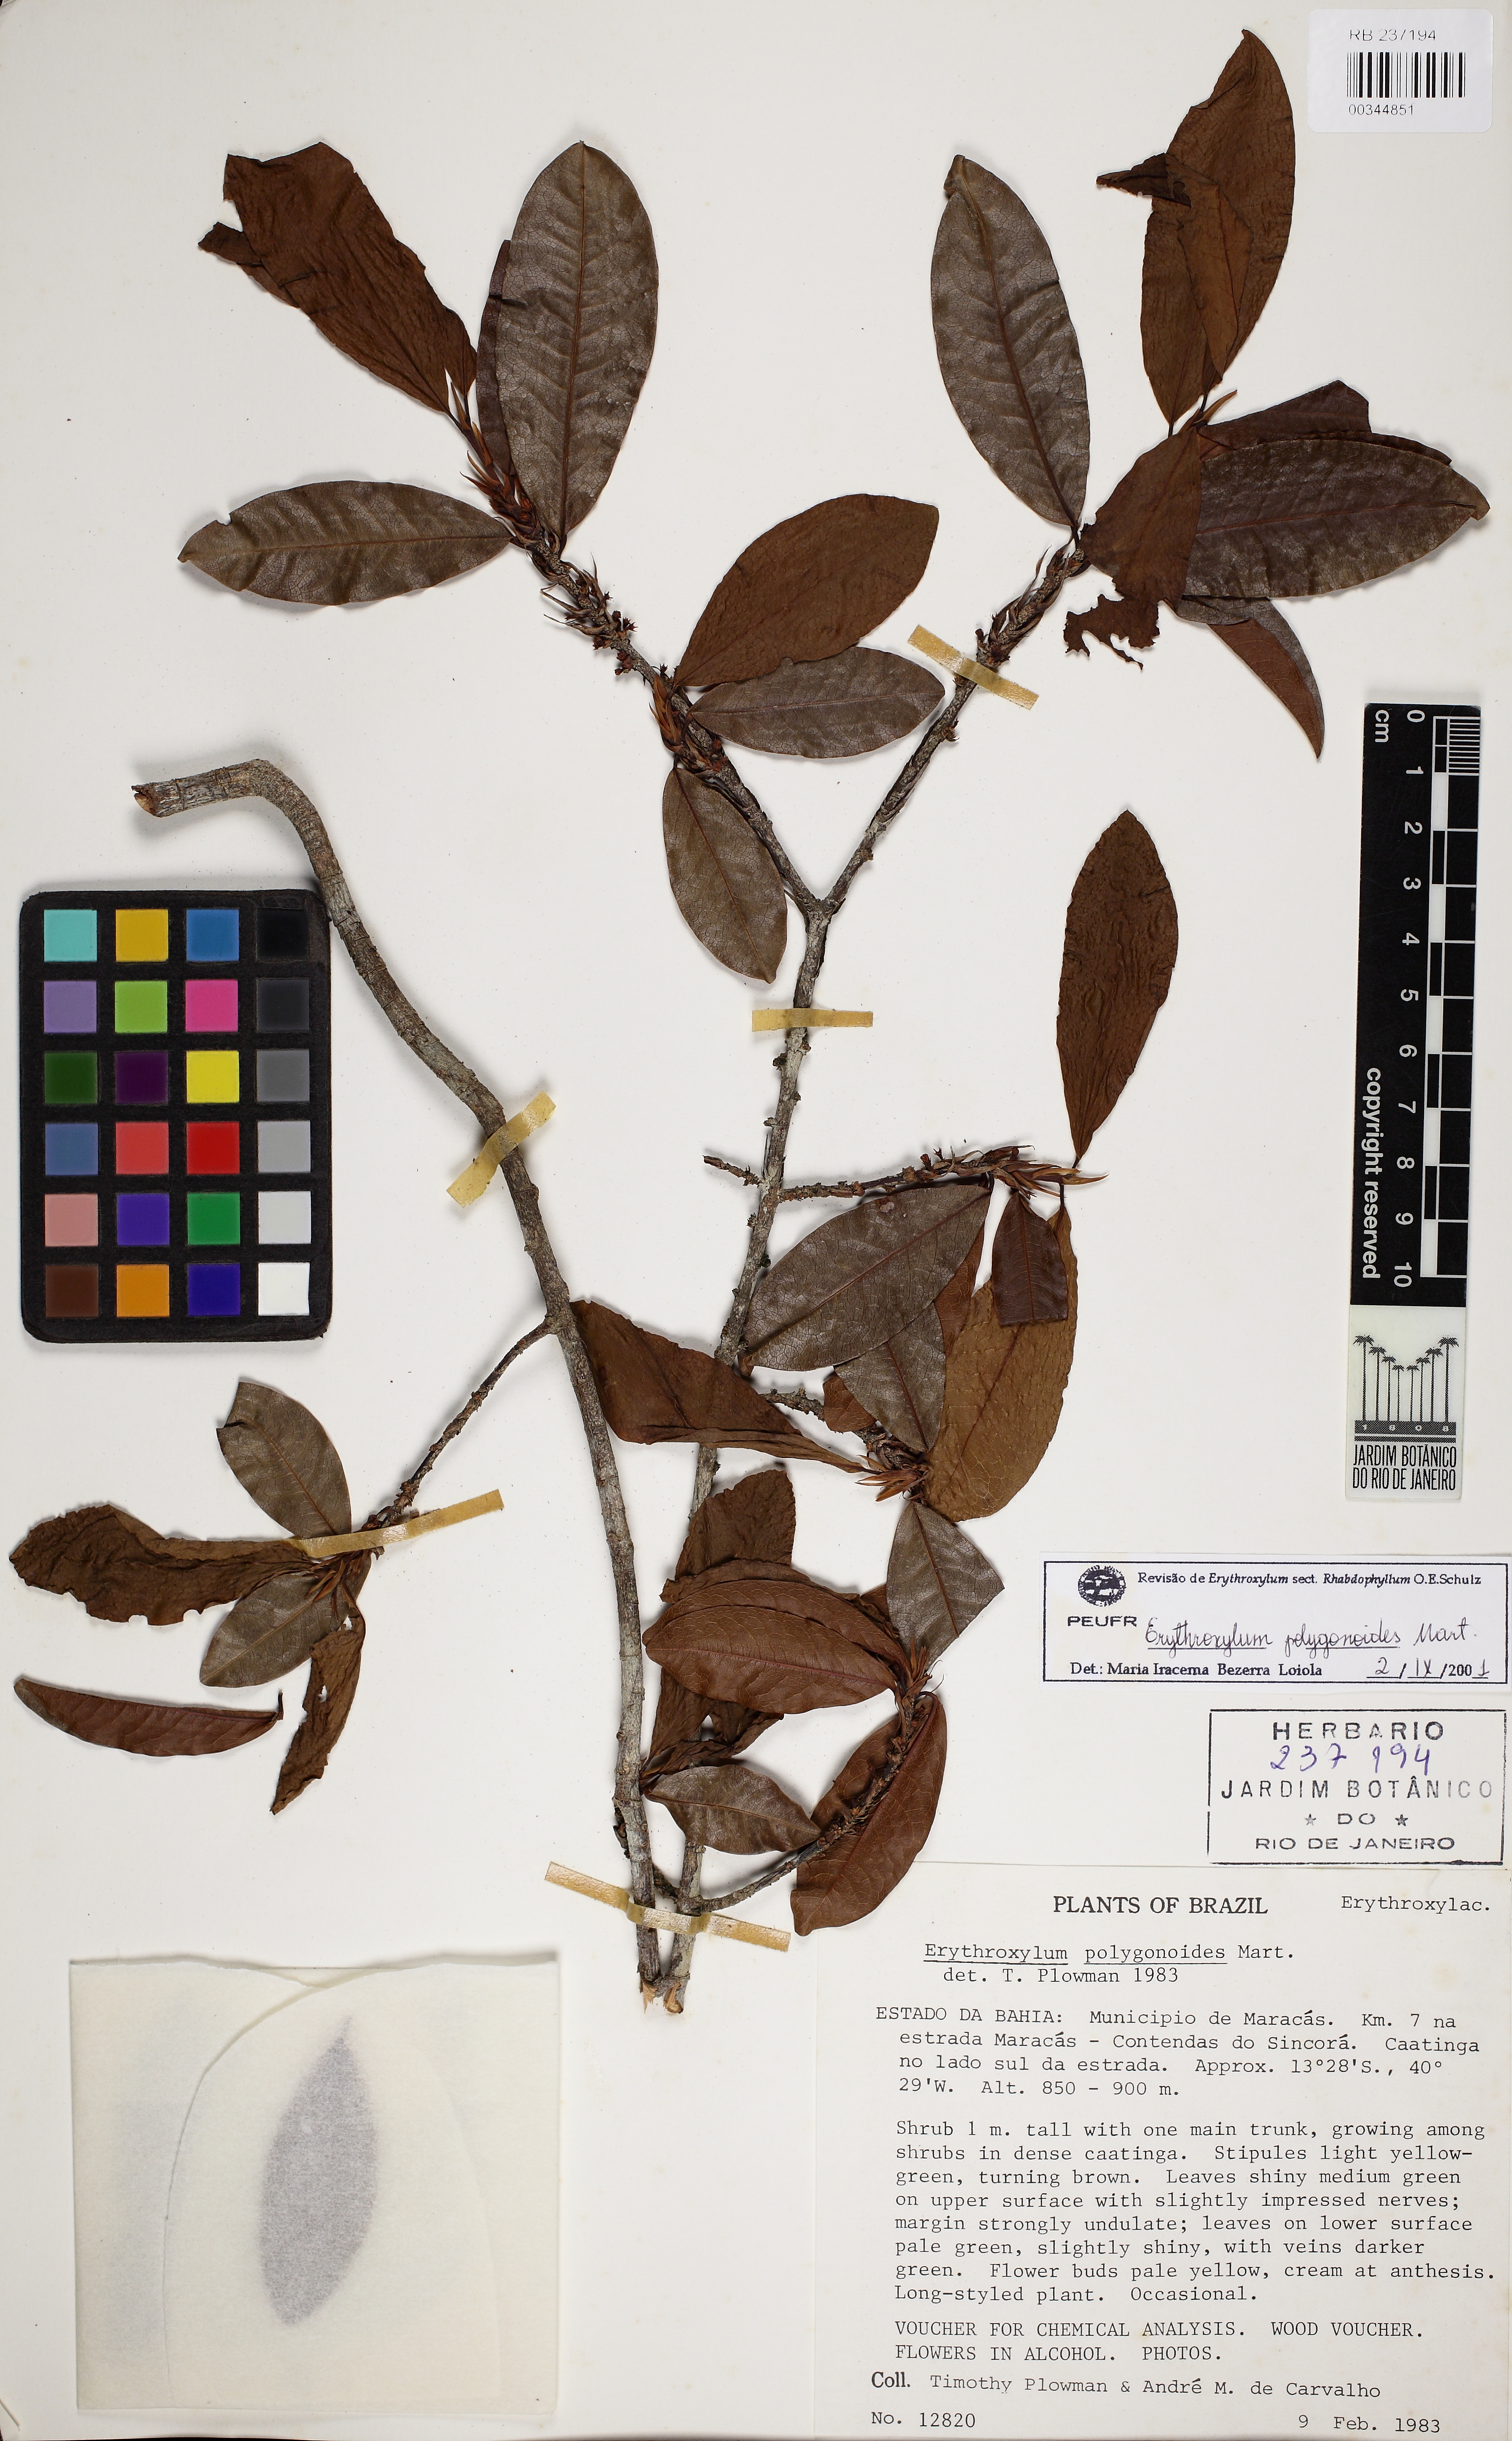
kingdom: Plantae
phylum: Tracheophyta
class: Magnoliopsida
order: Malpighiales
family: Erythroxylaceae
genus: Erythroxylum
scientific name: Erythroxylum polygonoides
